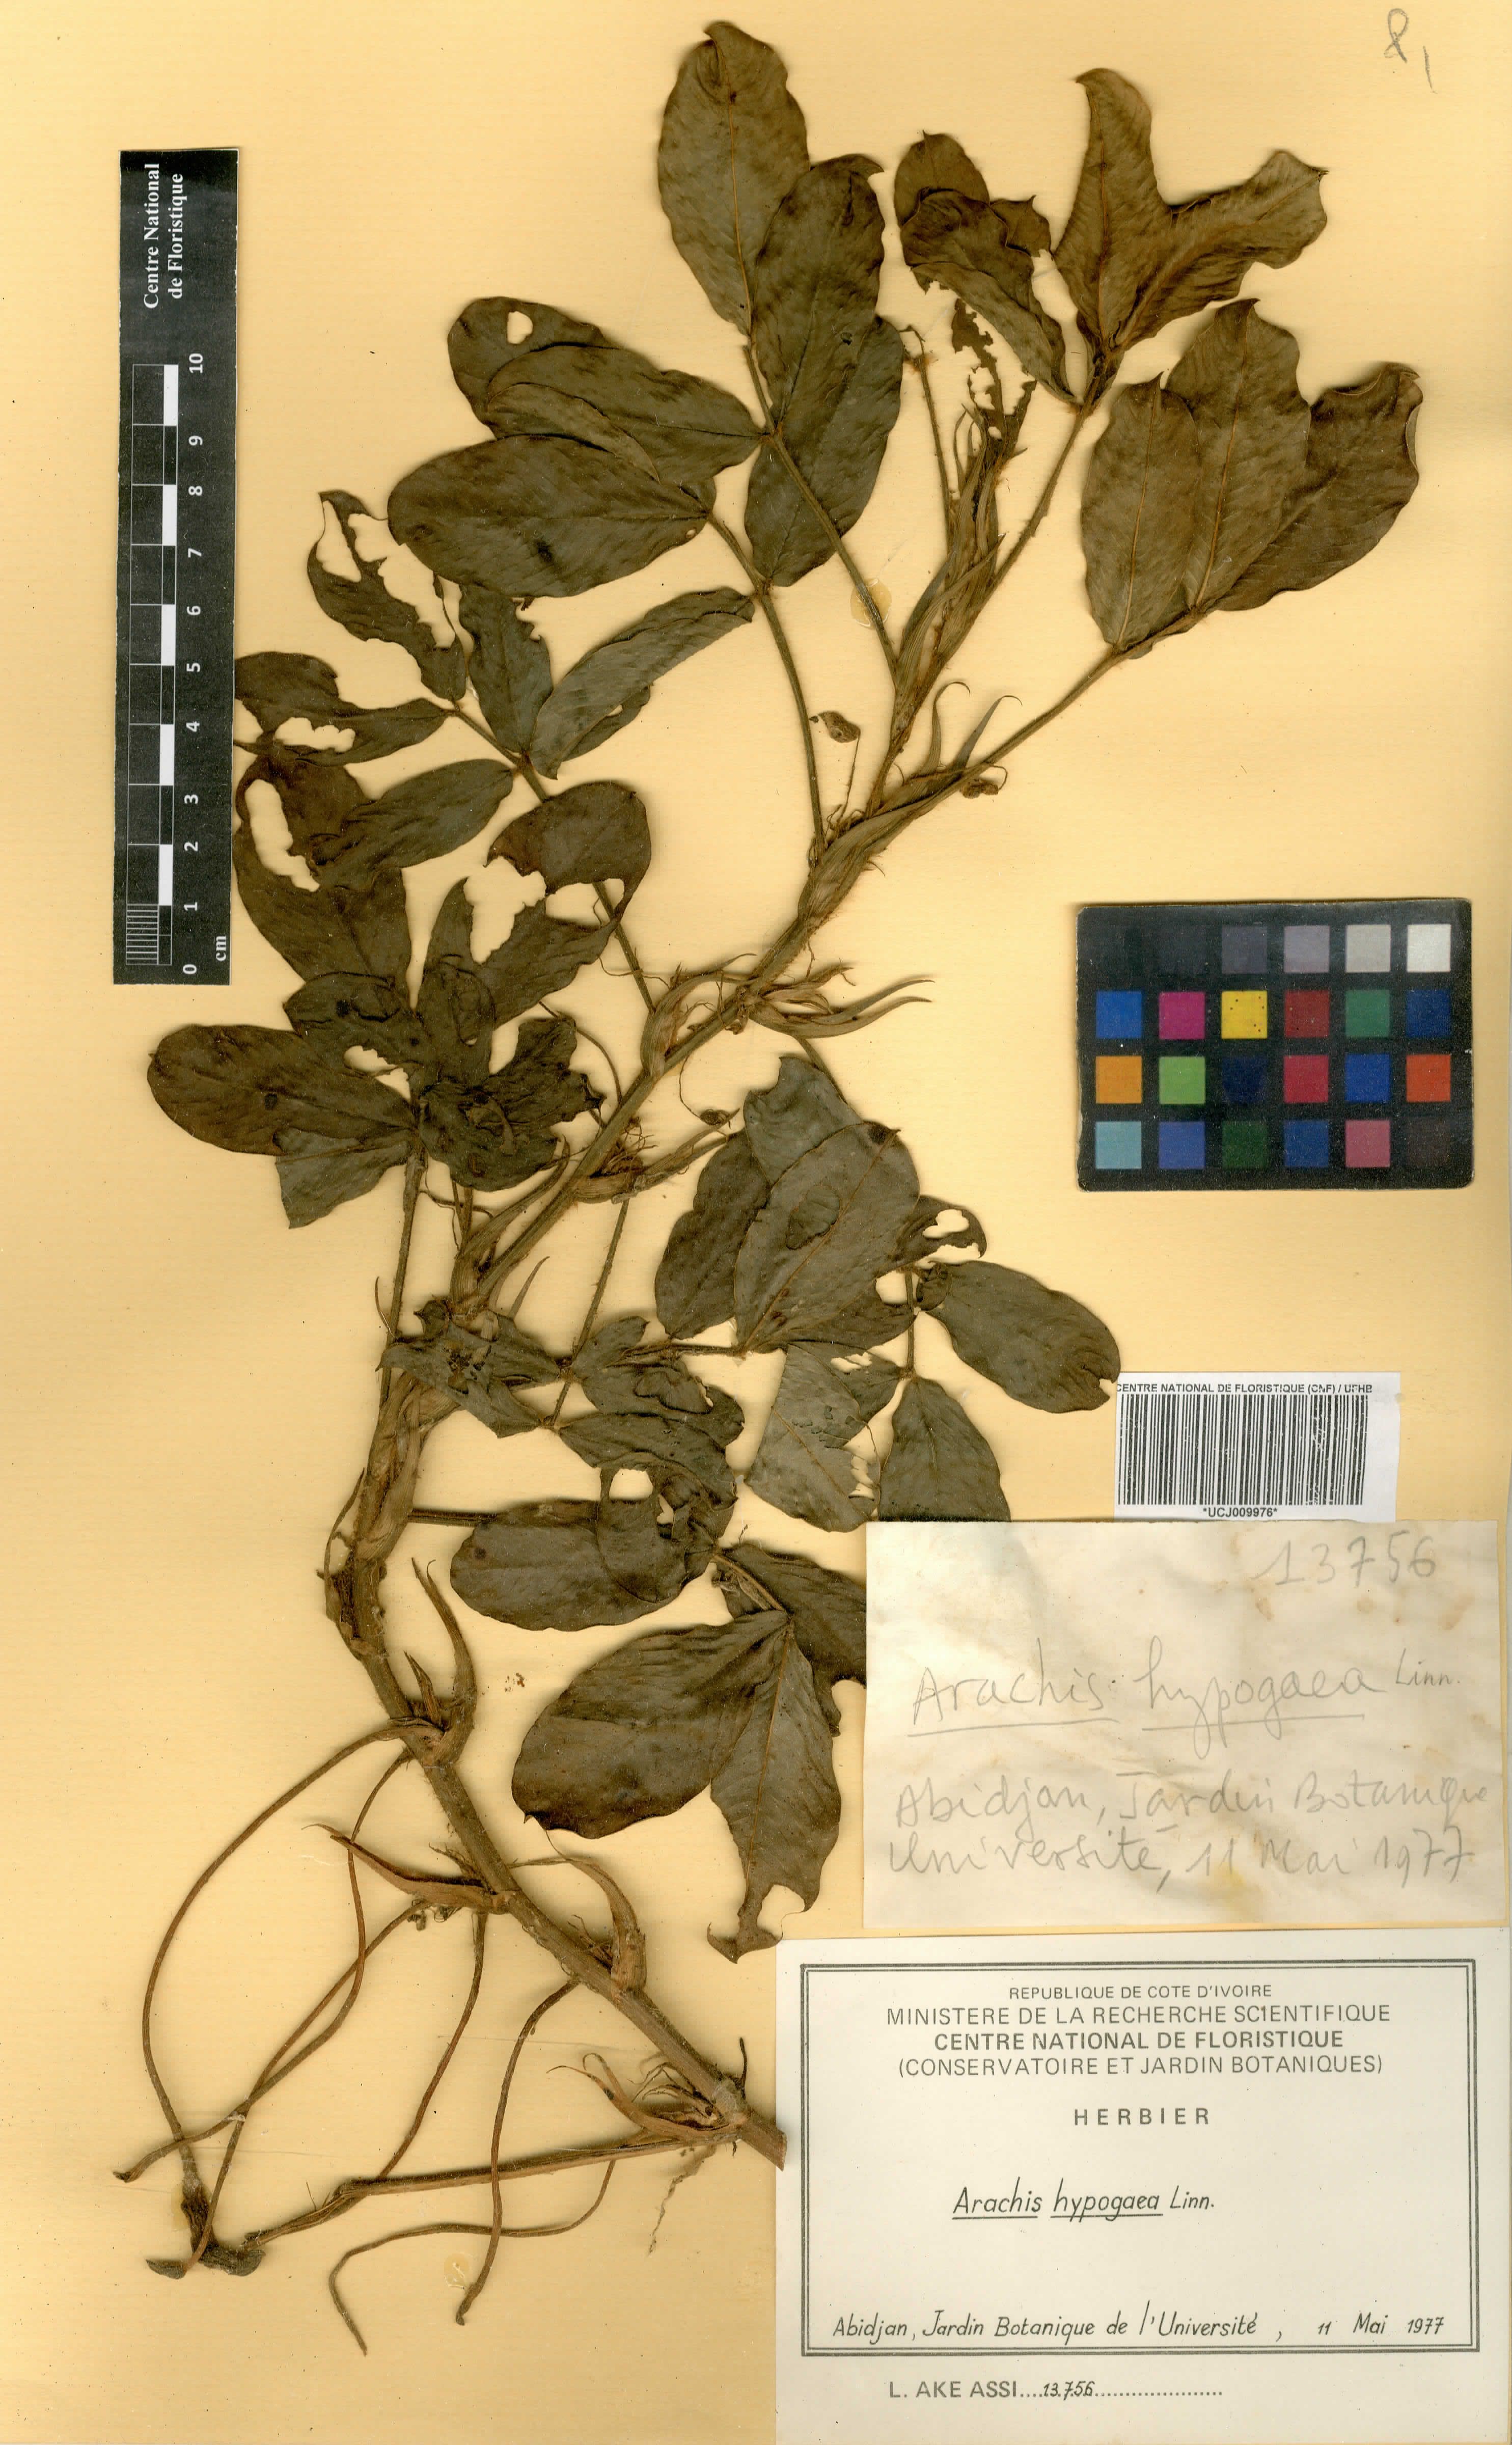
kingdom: Plantae
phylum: Tracheophyta
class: Magnoliopsida
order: Fabales
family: Fabaceae
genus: Arachis
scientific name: Arachis hypogaea
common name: Peanut
